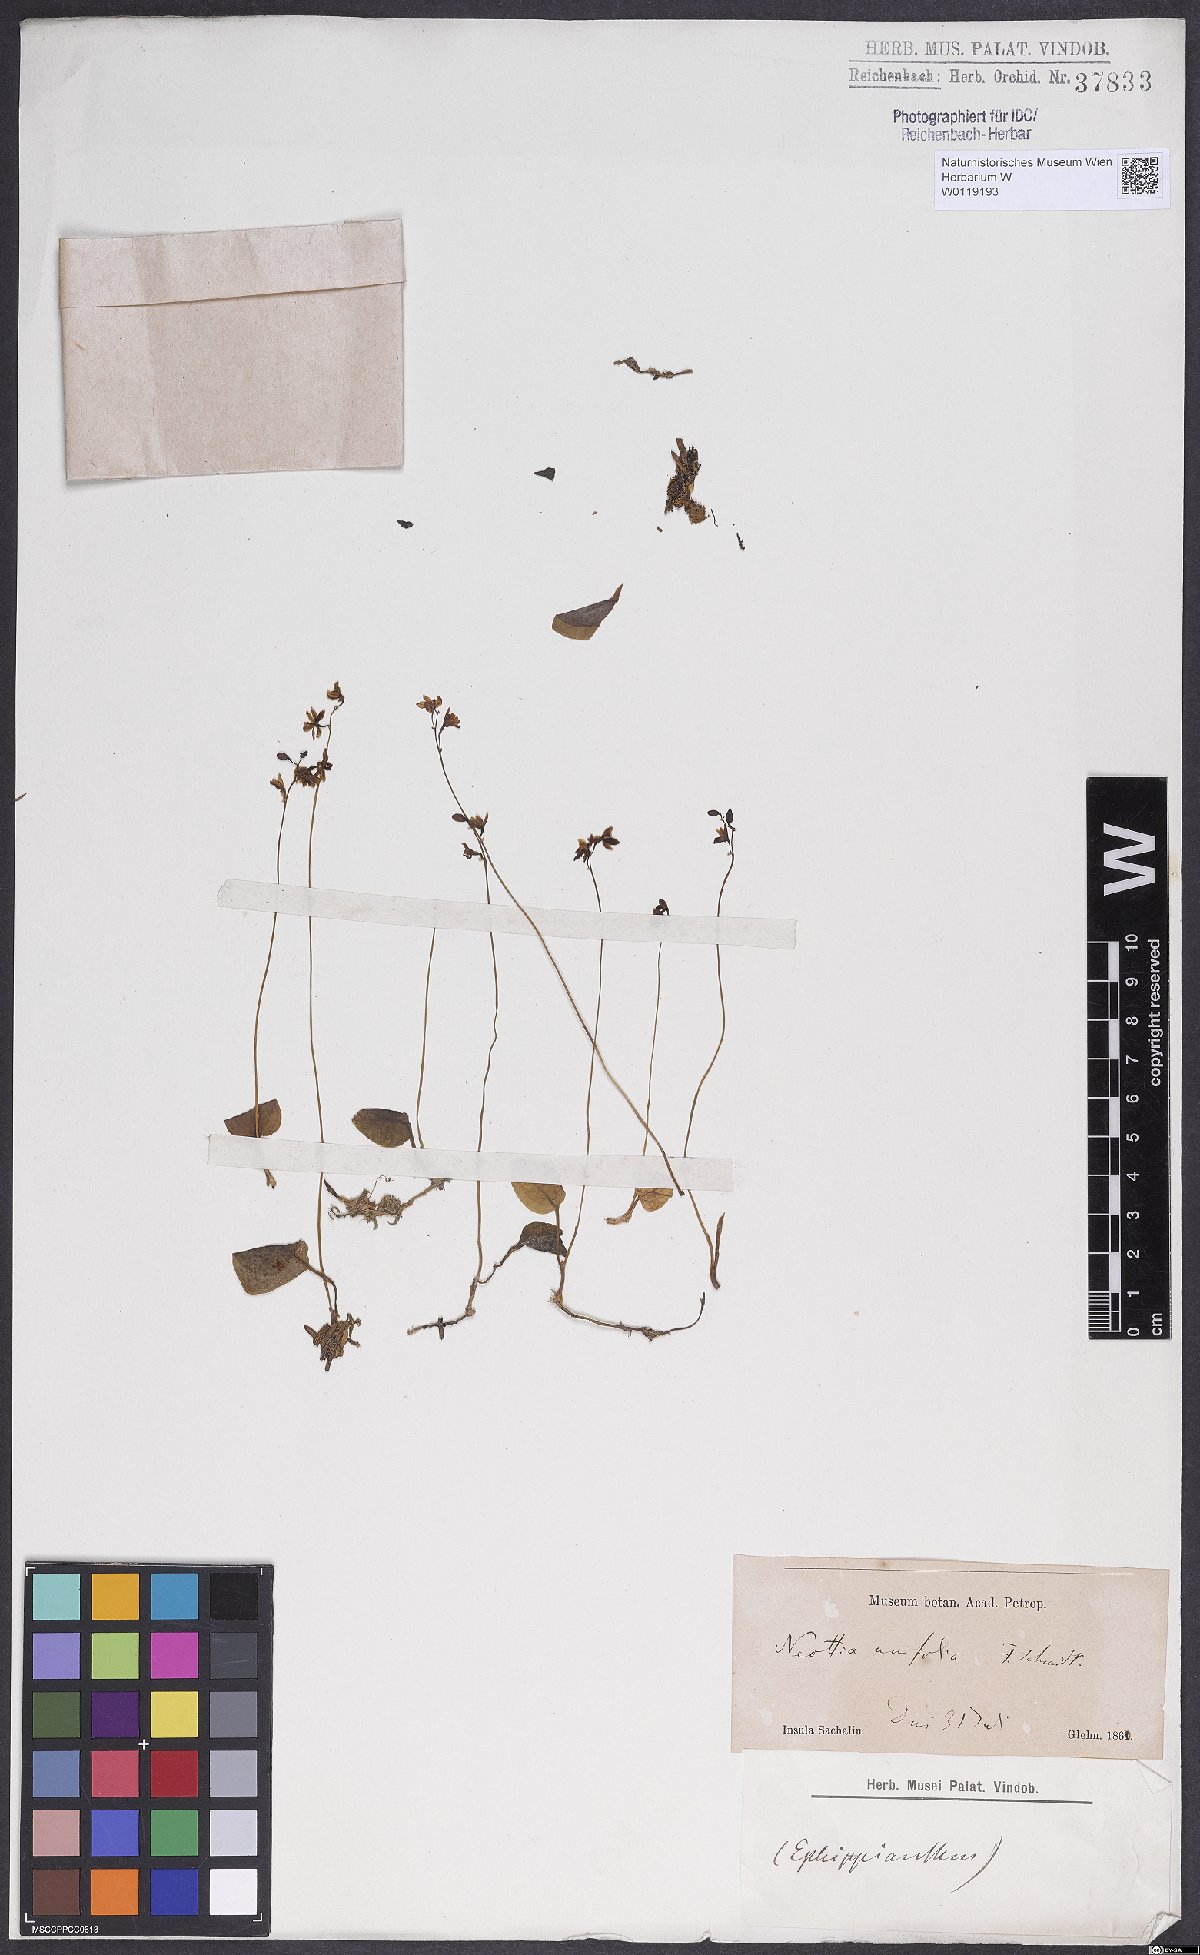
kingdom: Plantae
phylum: Tracheophyta
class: Liliopsida
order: Asparagales
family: Orchidaceae
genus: Ephippianthus
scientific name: Ephippianthus sachalinensis
